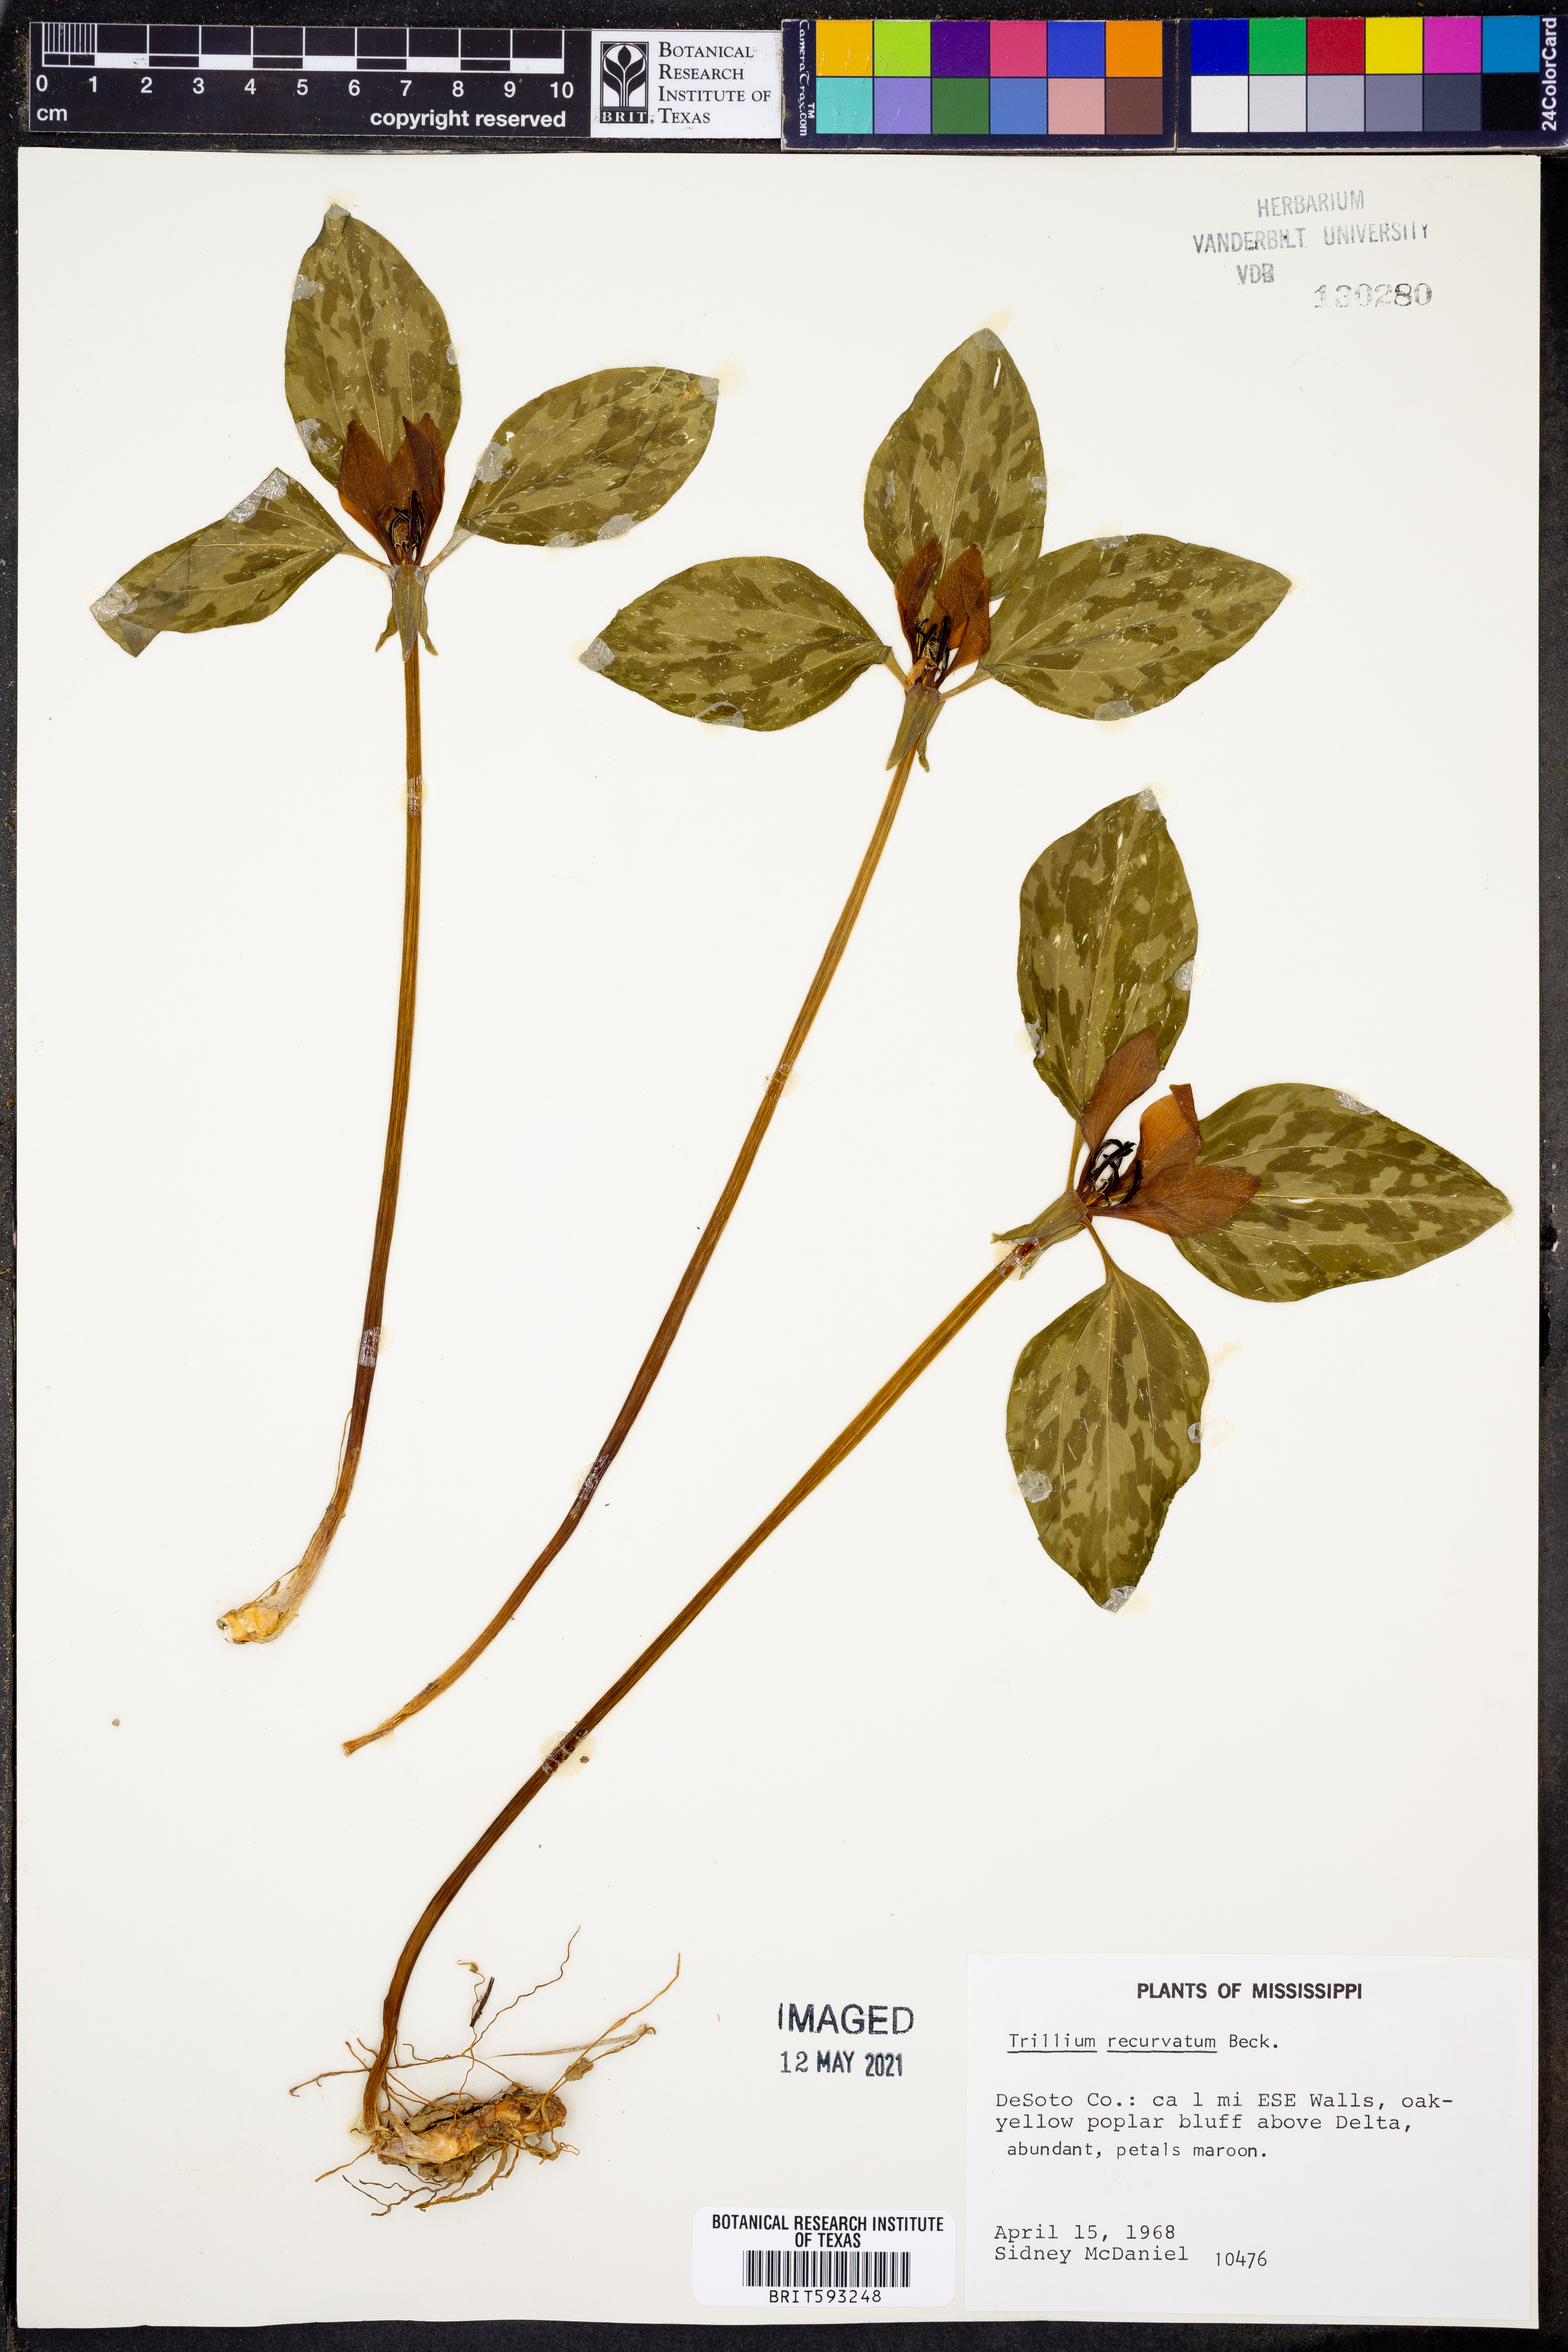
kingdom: Plantae
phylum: Tracheophyta
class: Liliopsida
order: Liliales
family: Melanthiaceae
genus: Trillium
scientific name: Trillium recurvatum
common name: Bloody butcher
